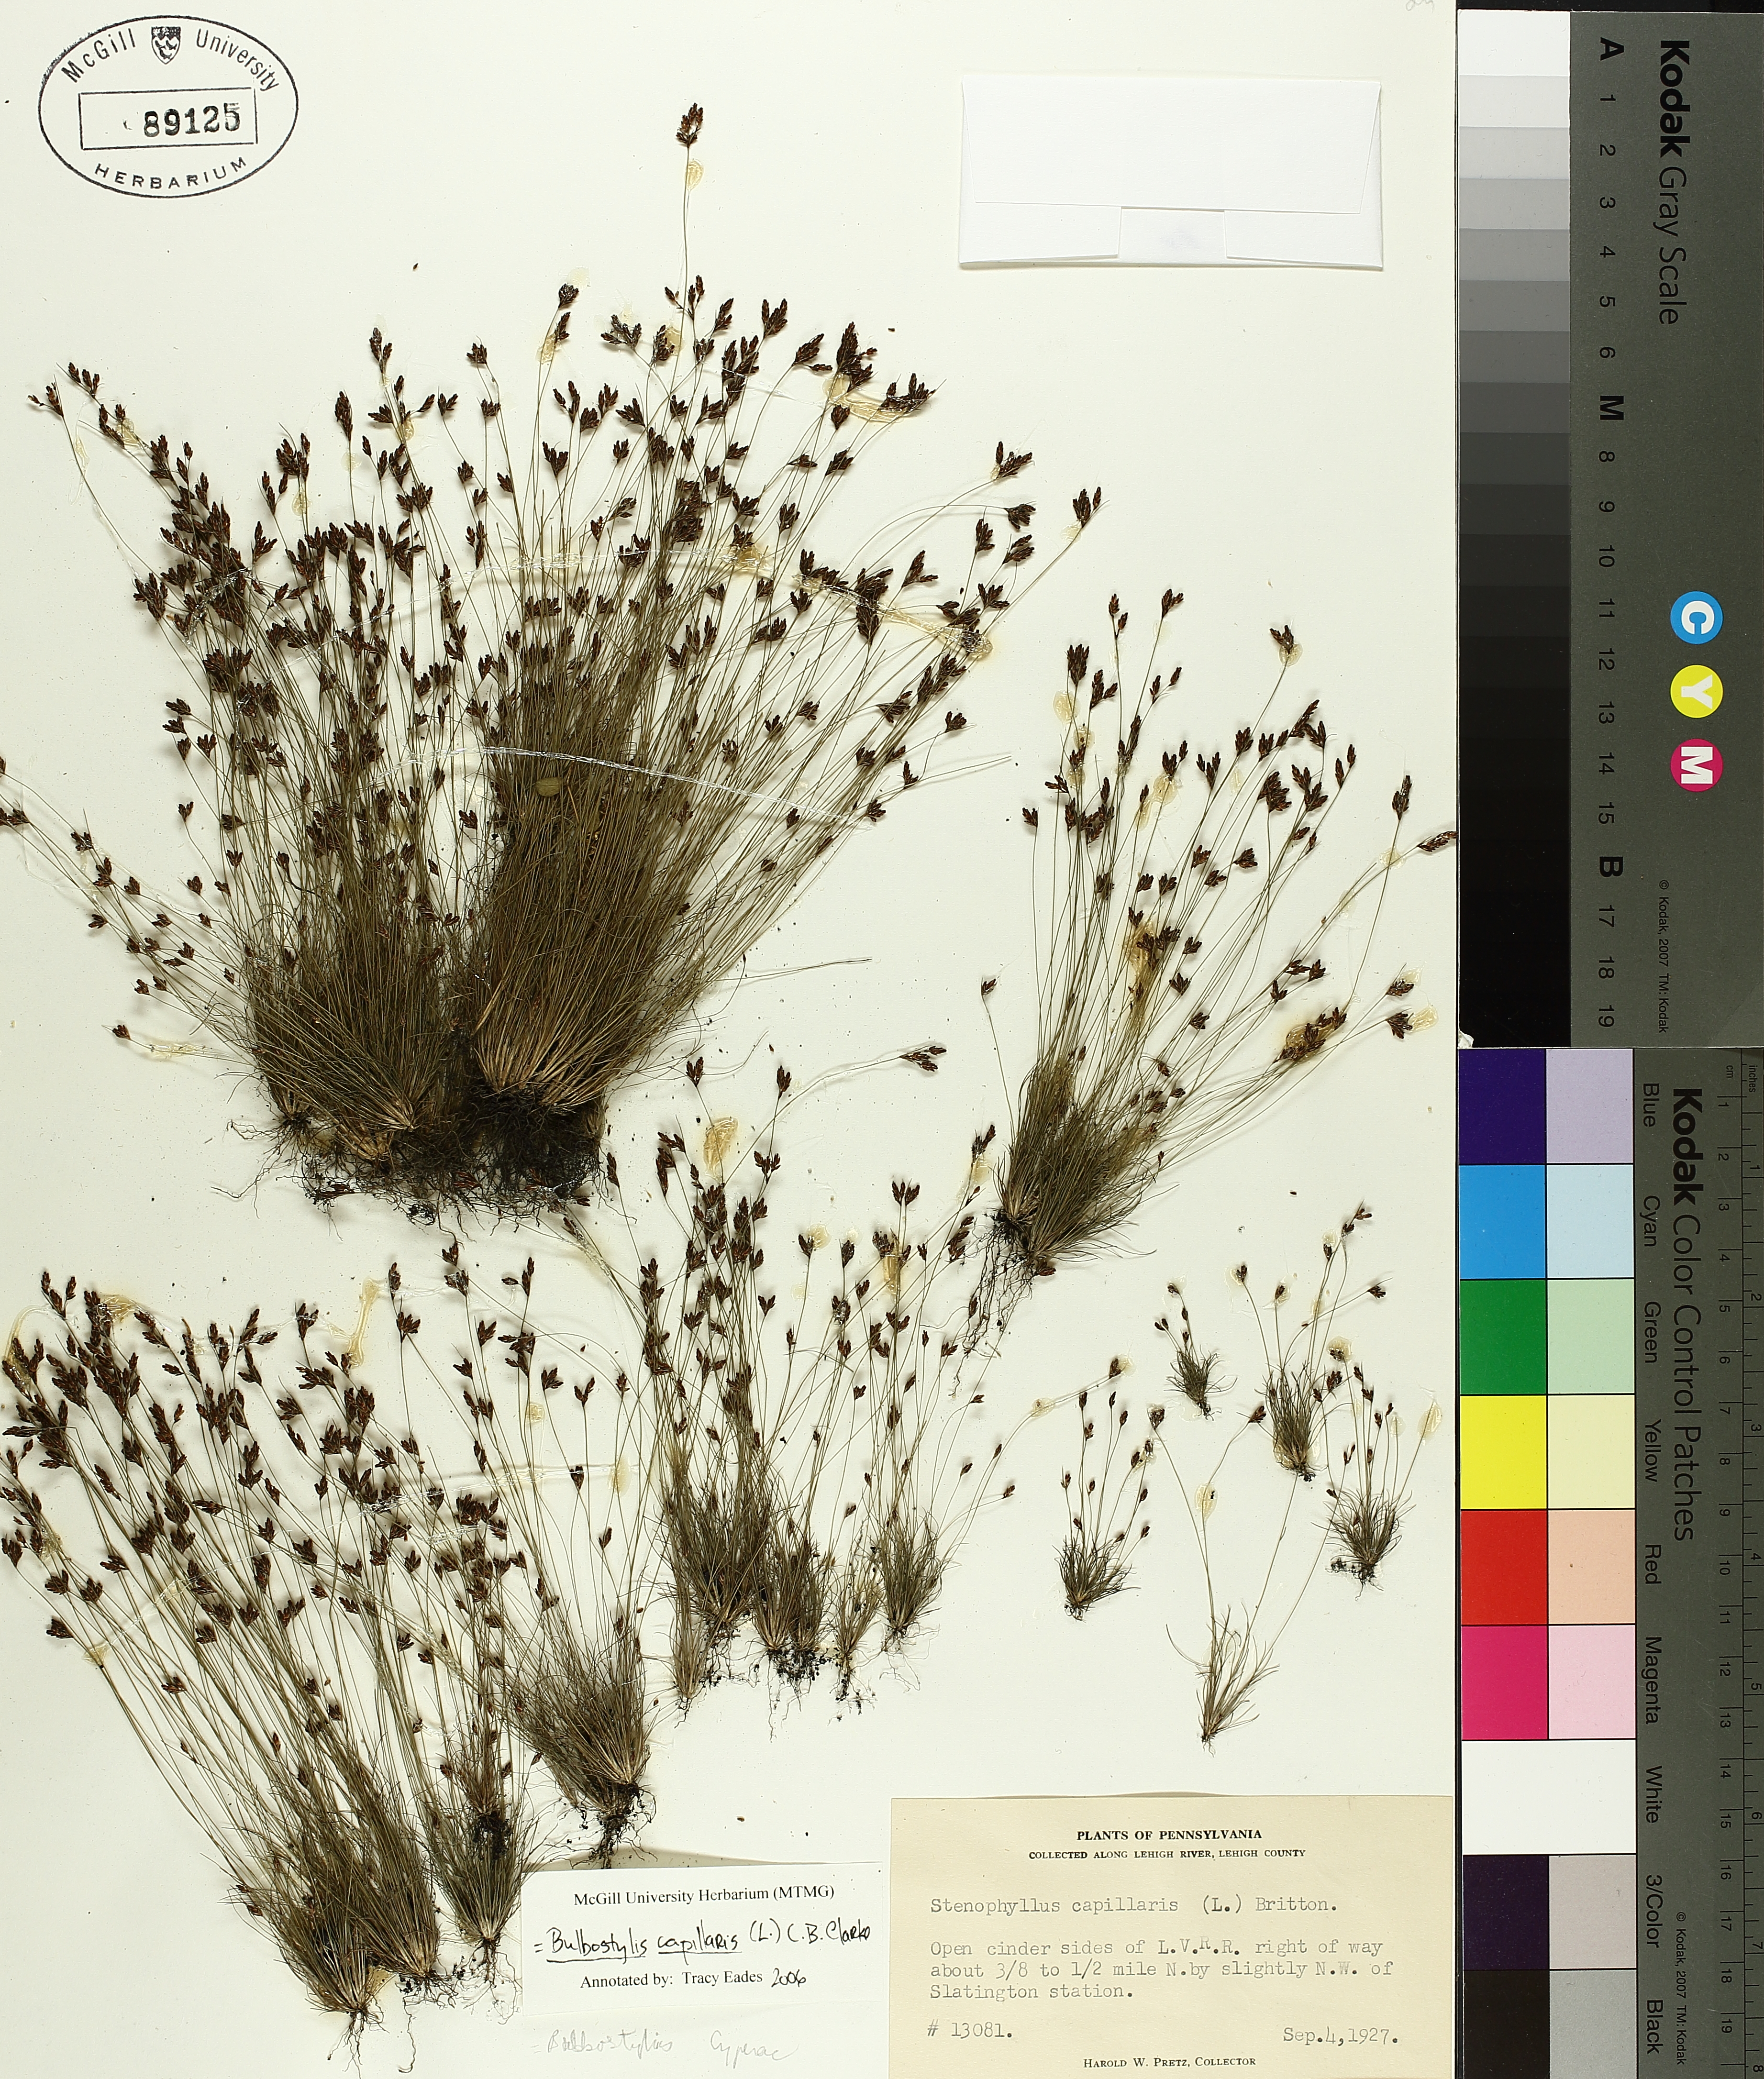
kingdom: Plantae
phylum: Tracheophyta
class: Liliopsida
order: Poales
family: Cyperaceae
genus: Bulbostylis
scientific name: Bulbostylis capillaris
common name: Densetuft hairsedge
